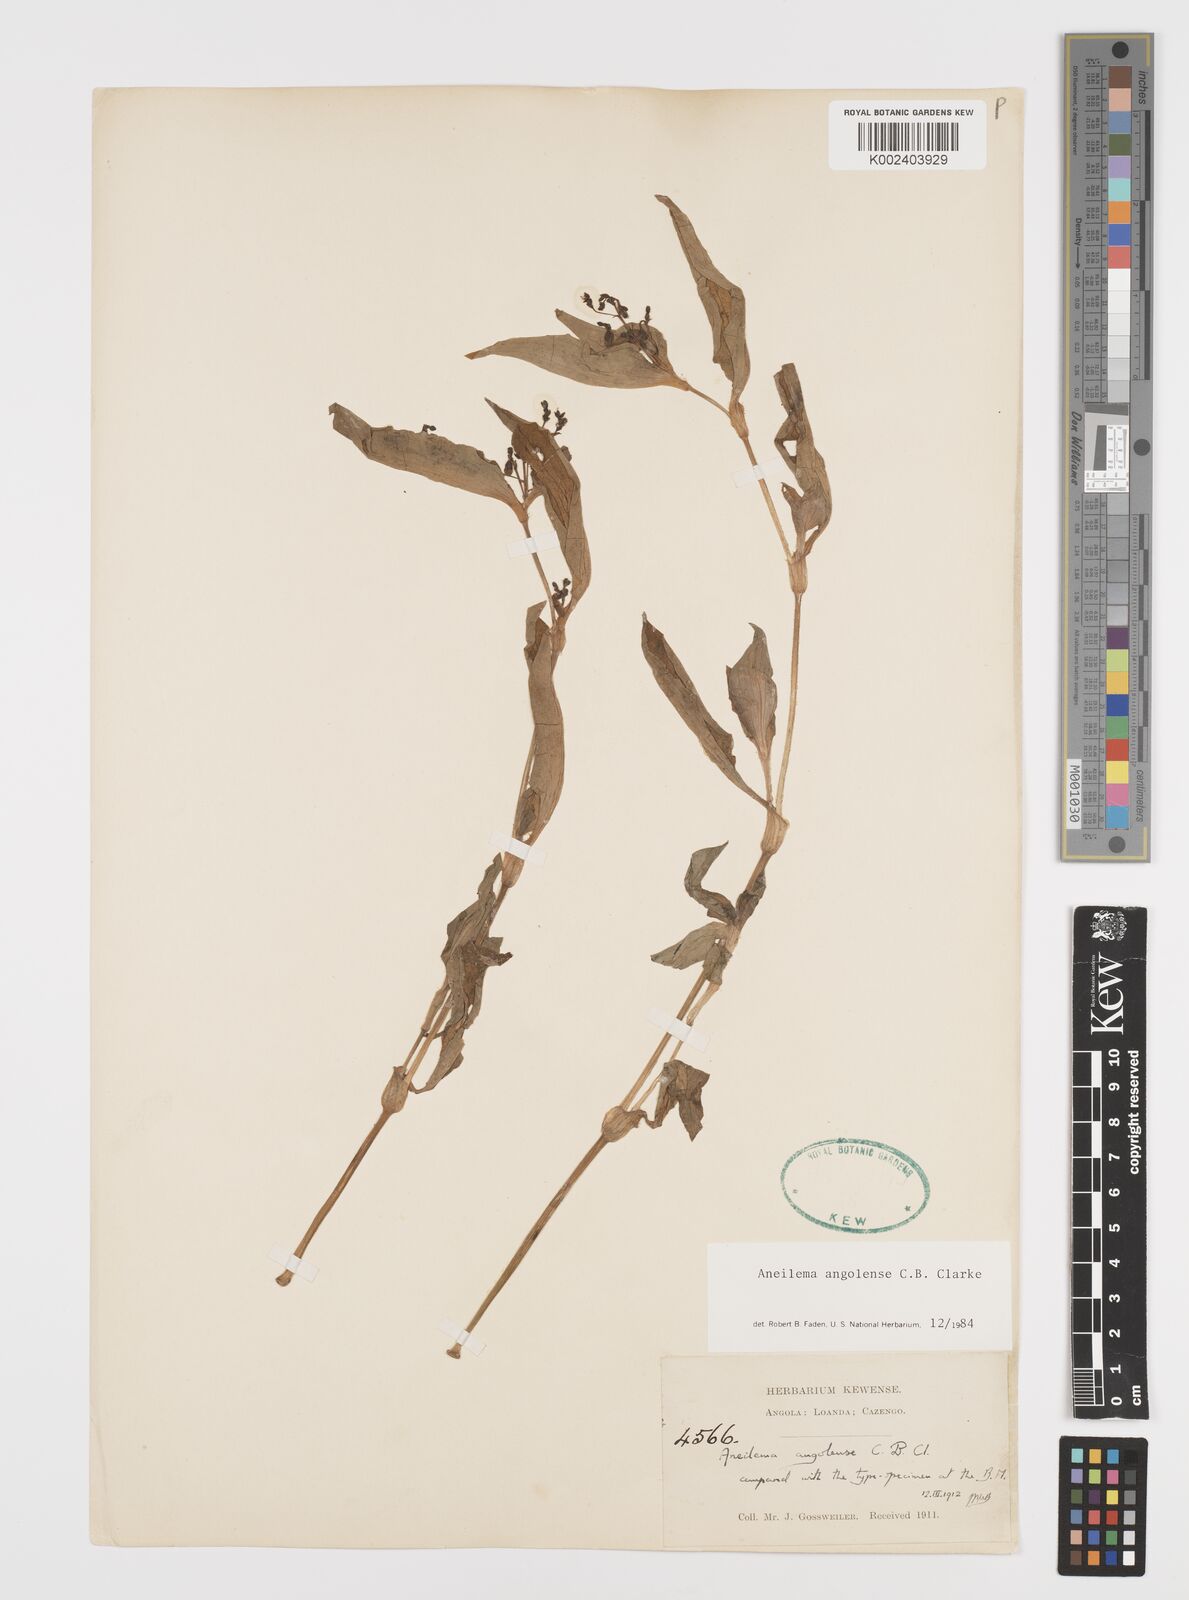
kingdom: Plantae
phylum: Tracheophyta
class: Liliopsida
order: Commelinales
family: Commelinaceae
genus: Aneilema
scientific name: Aneilema angolense
